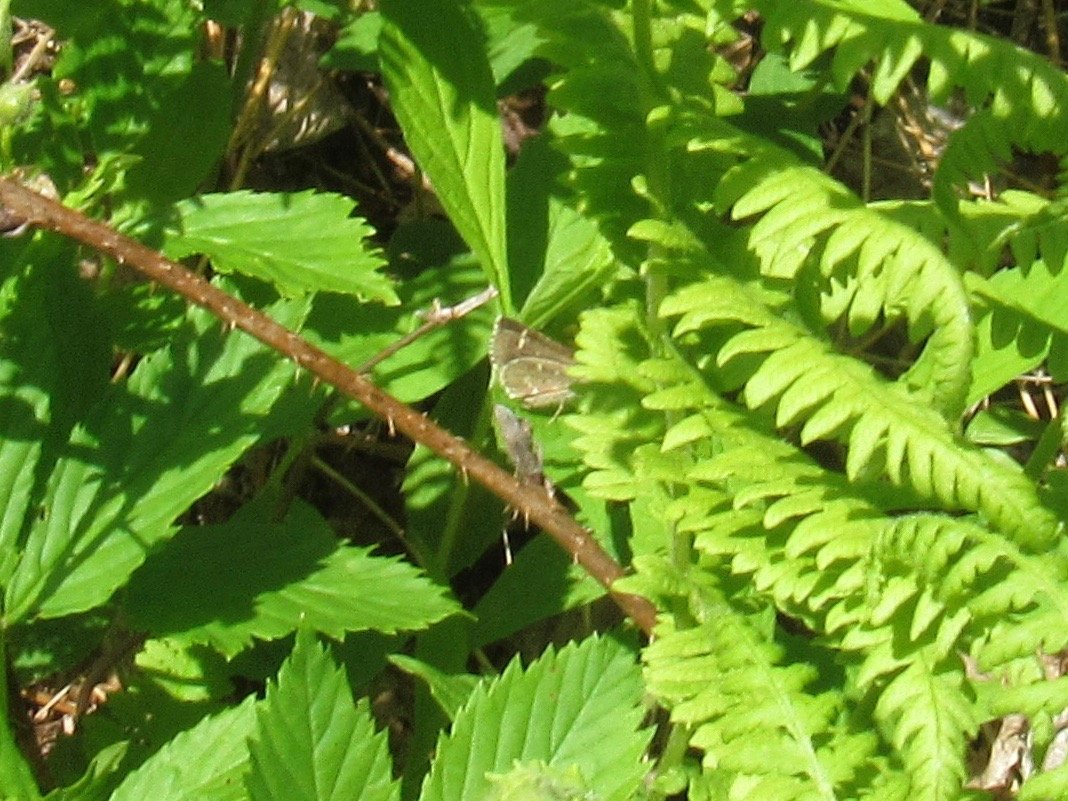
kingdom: Animalia
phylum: Arthropoda
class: Insecta
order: Lepidoptera
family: Hesperiidae
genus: Mastor
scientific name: Mastor hegon
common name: Pepper and Salt Skipper
